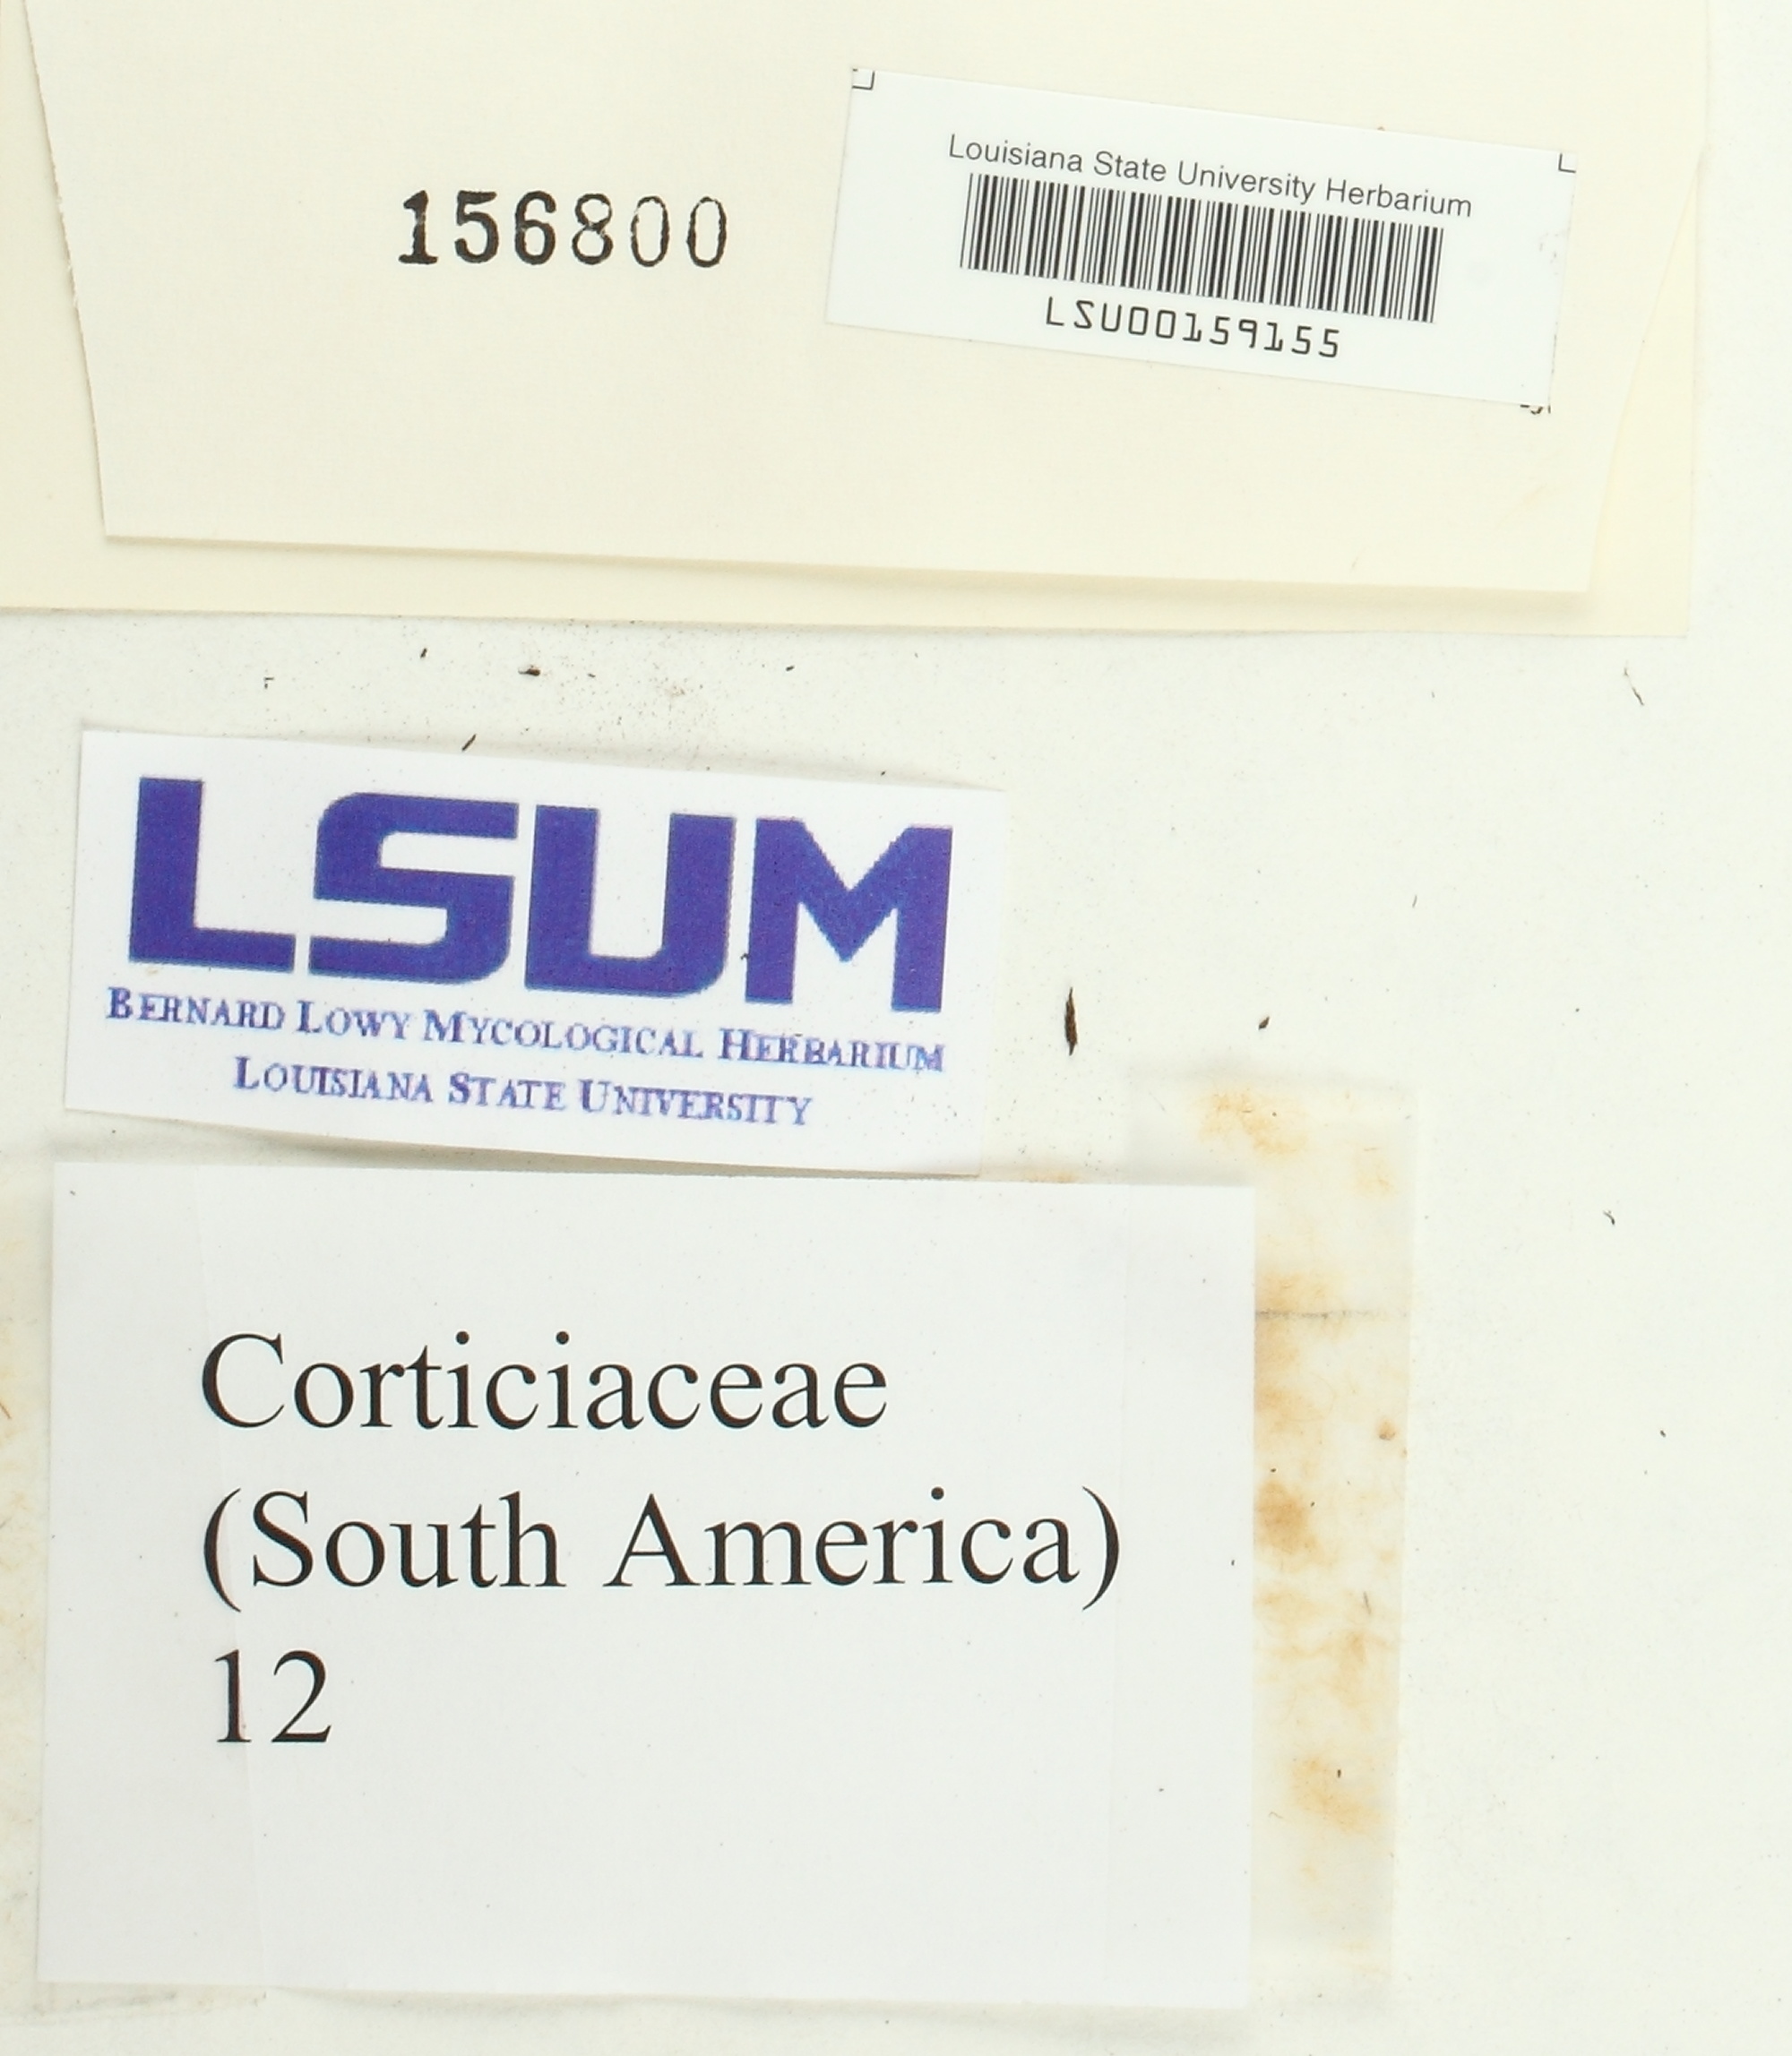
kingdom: Fungi
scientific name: Fungi
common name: Fungi
